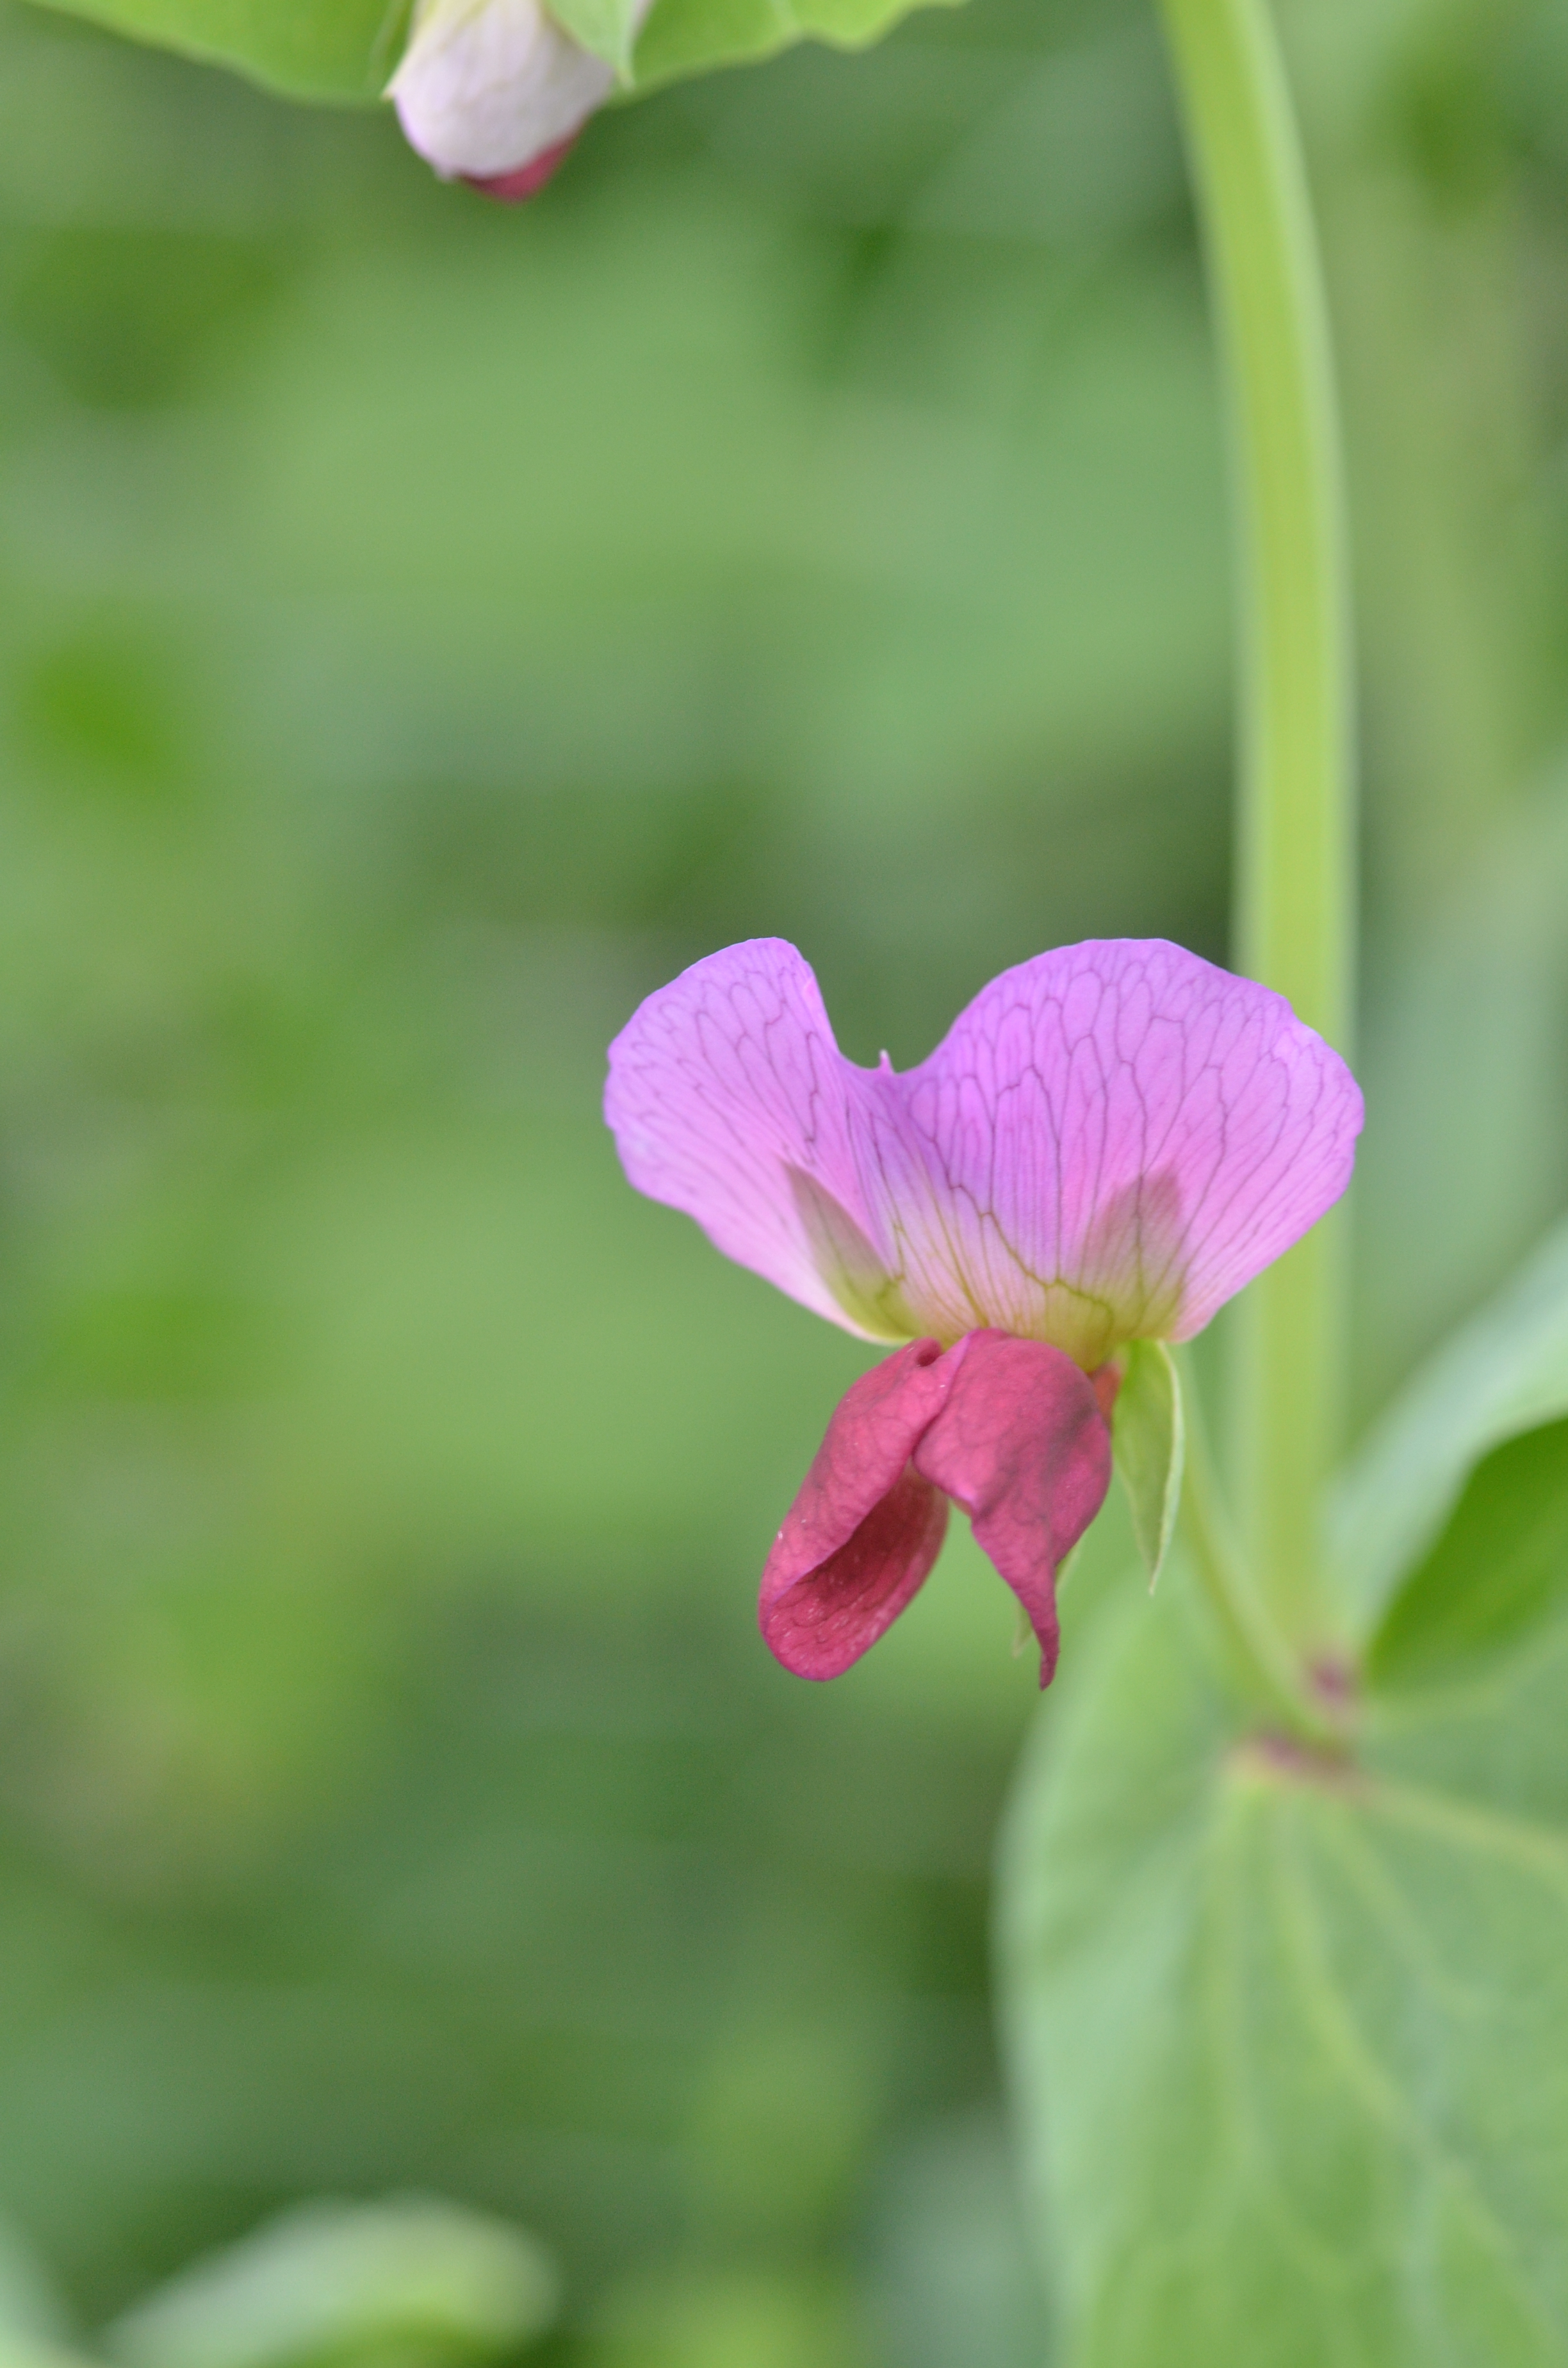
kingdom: Plantae
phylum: Tracheophyta
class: Magnoliopsida
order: Fabales
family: Fabaceae
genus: Lathyrus
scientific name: Lathyrus oleraceus
